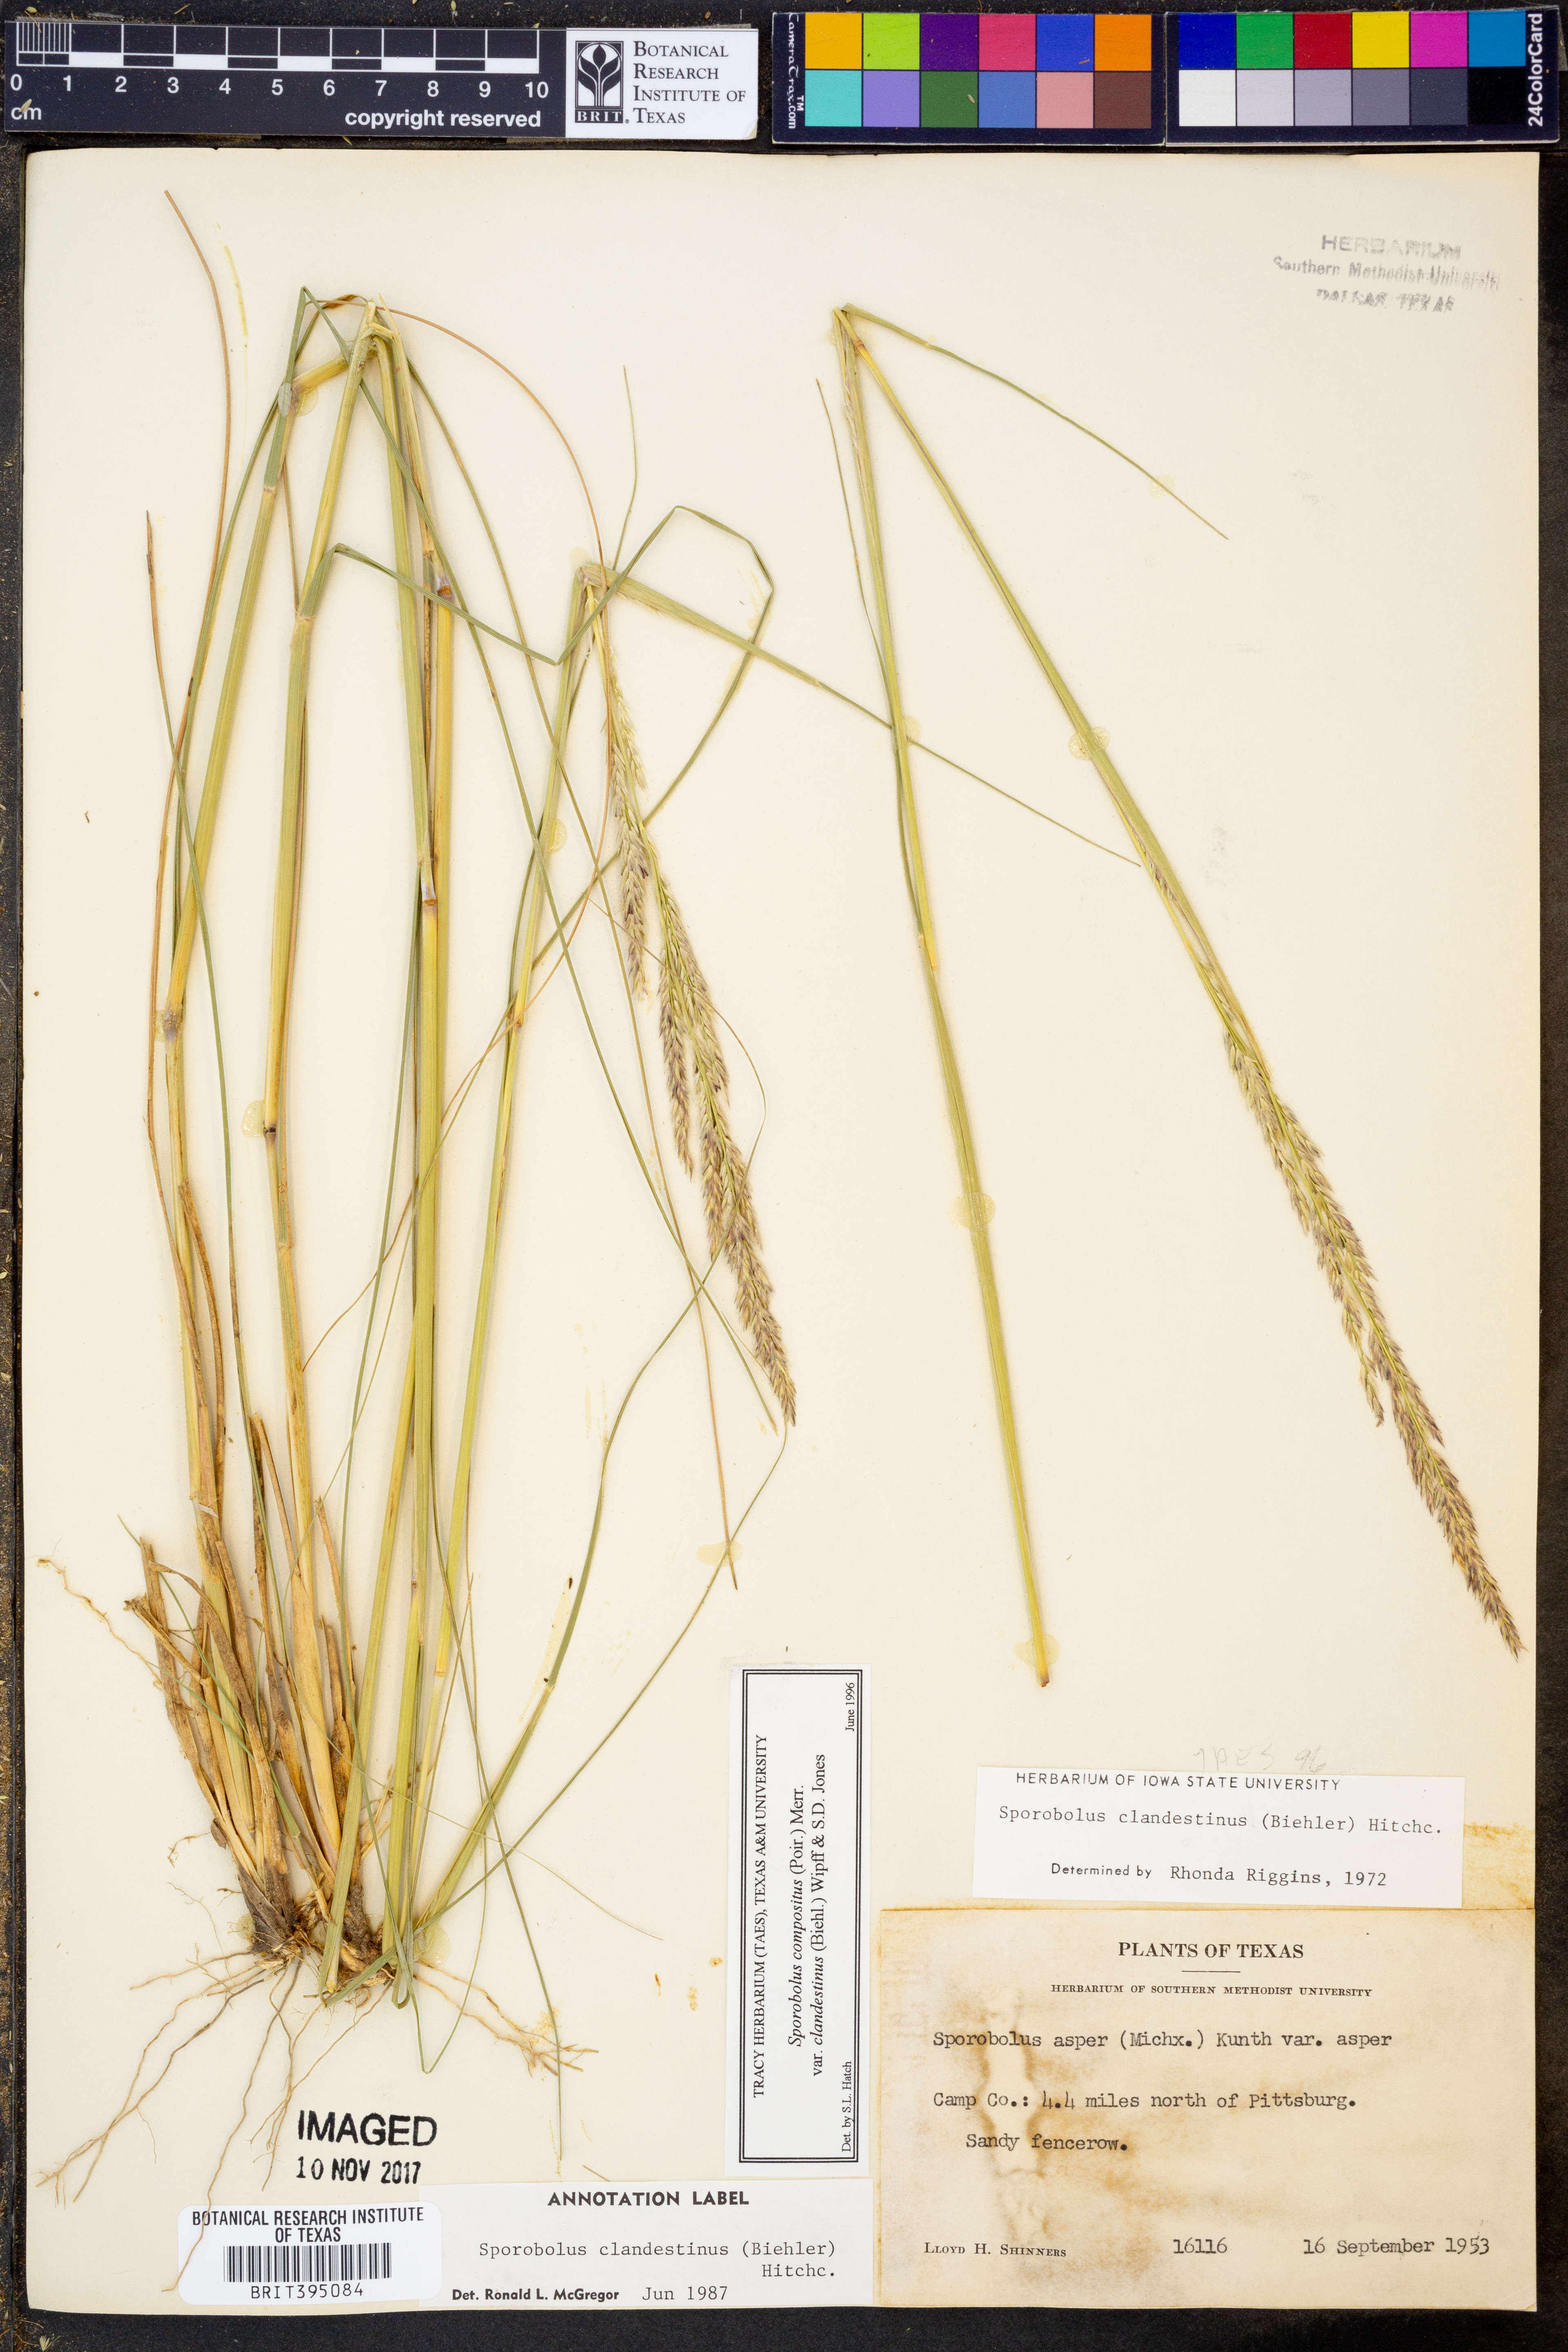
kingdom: Plantae
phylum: Tracheophyta
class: Liliopsida
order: Poales
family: Poaceae
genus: Sporobolus
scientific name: Sporobolus clandestinus
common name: Hidden dropseed
